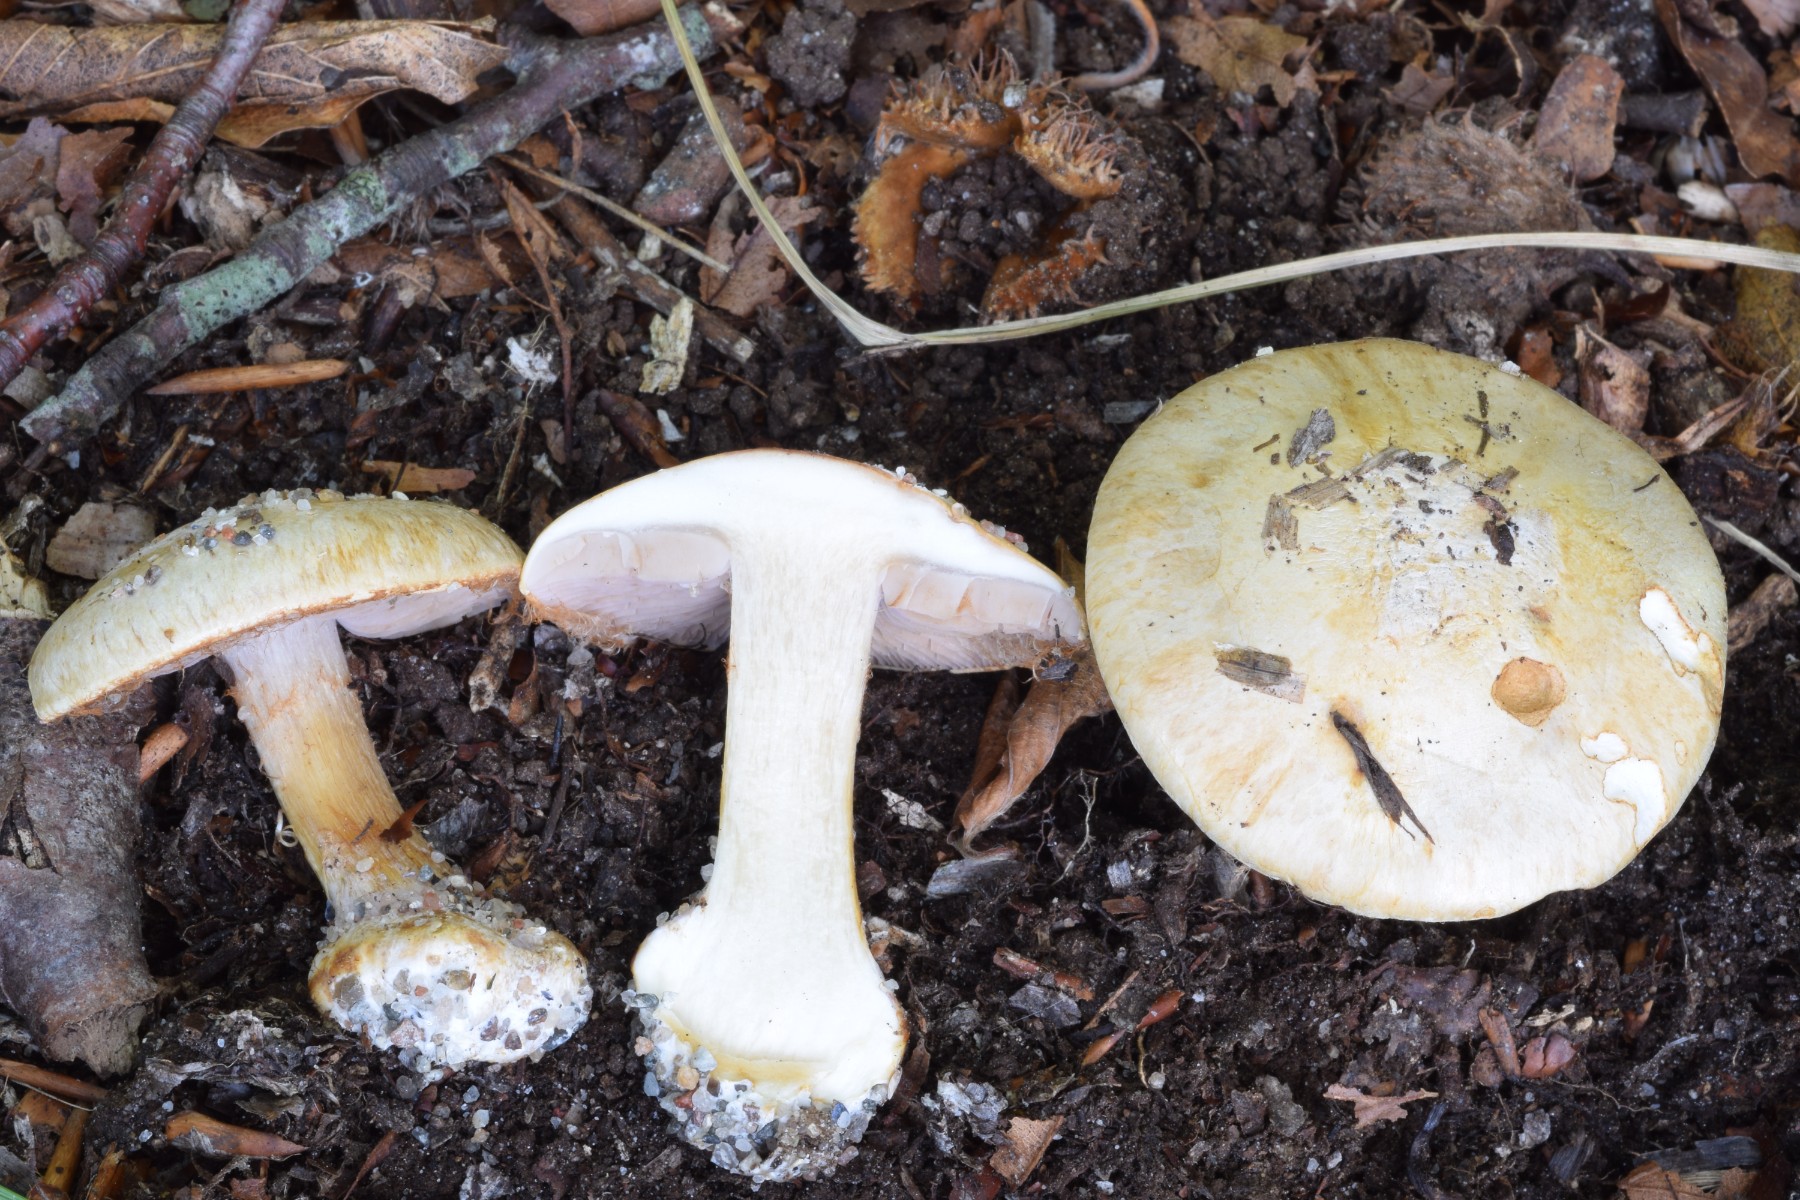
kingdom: Fungi
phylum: Basidiomycota
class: Agaricomycetes
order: Agaricales
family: Cortinariaceae
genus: Calonarius
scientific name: Calonarius lilacinovelatus
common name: violetknoldet slørhat
